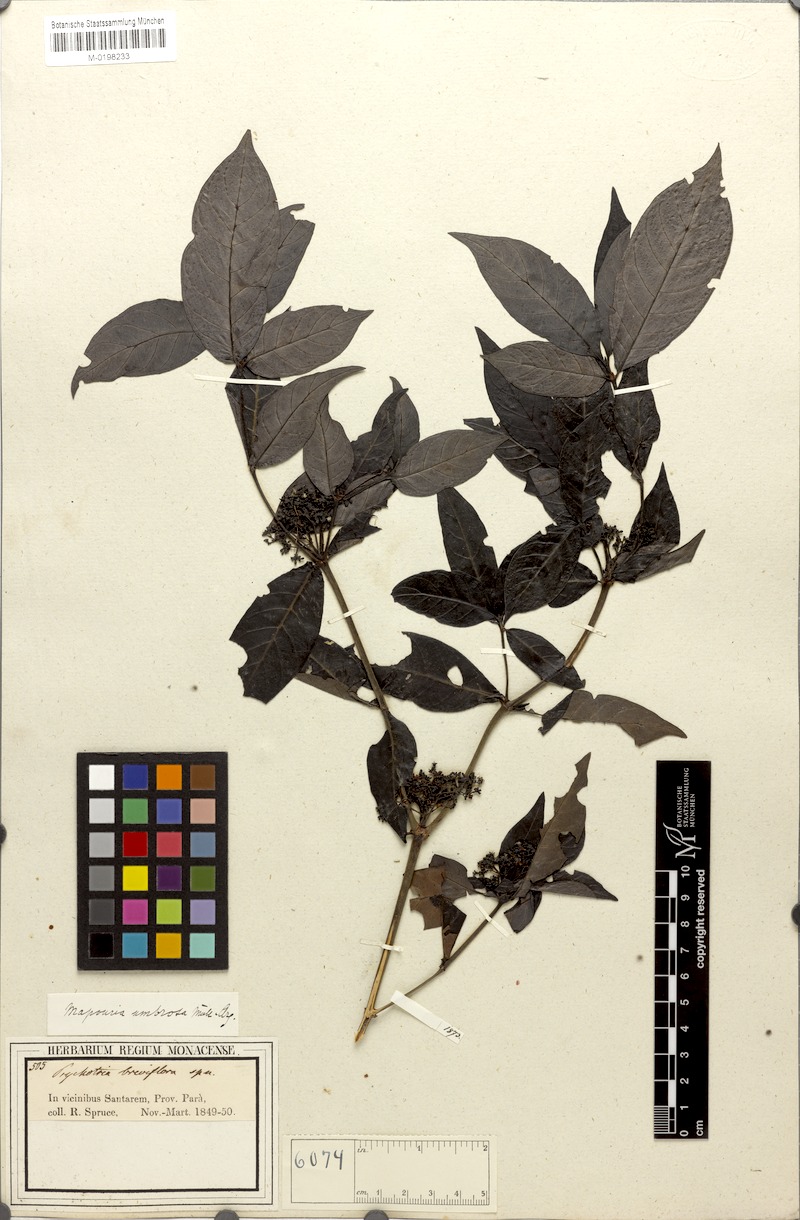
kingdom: Plantae
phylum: Tracheophyta
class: Magnoliopsida
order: Gentianales
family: Rubiaceae
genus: Psychotria
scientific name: Psychotria borjensis
